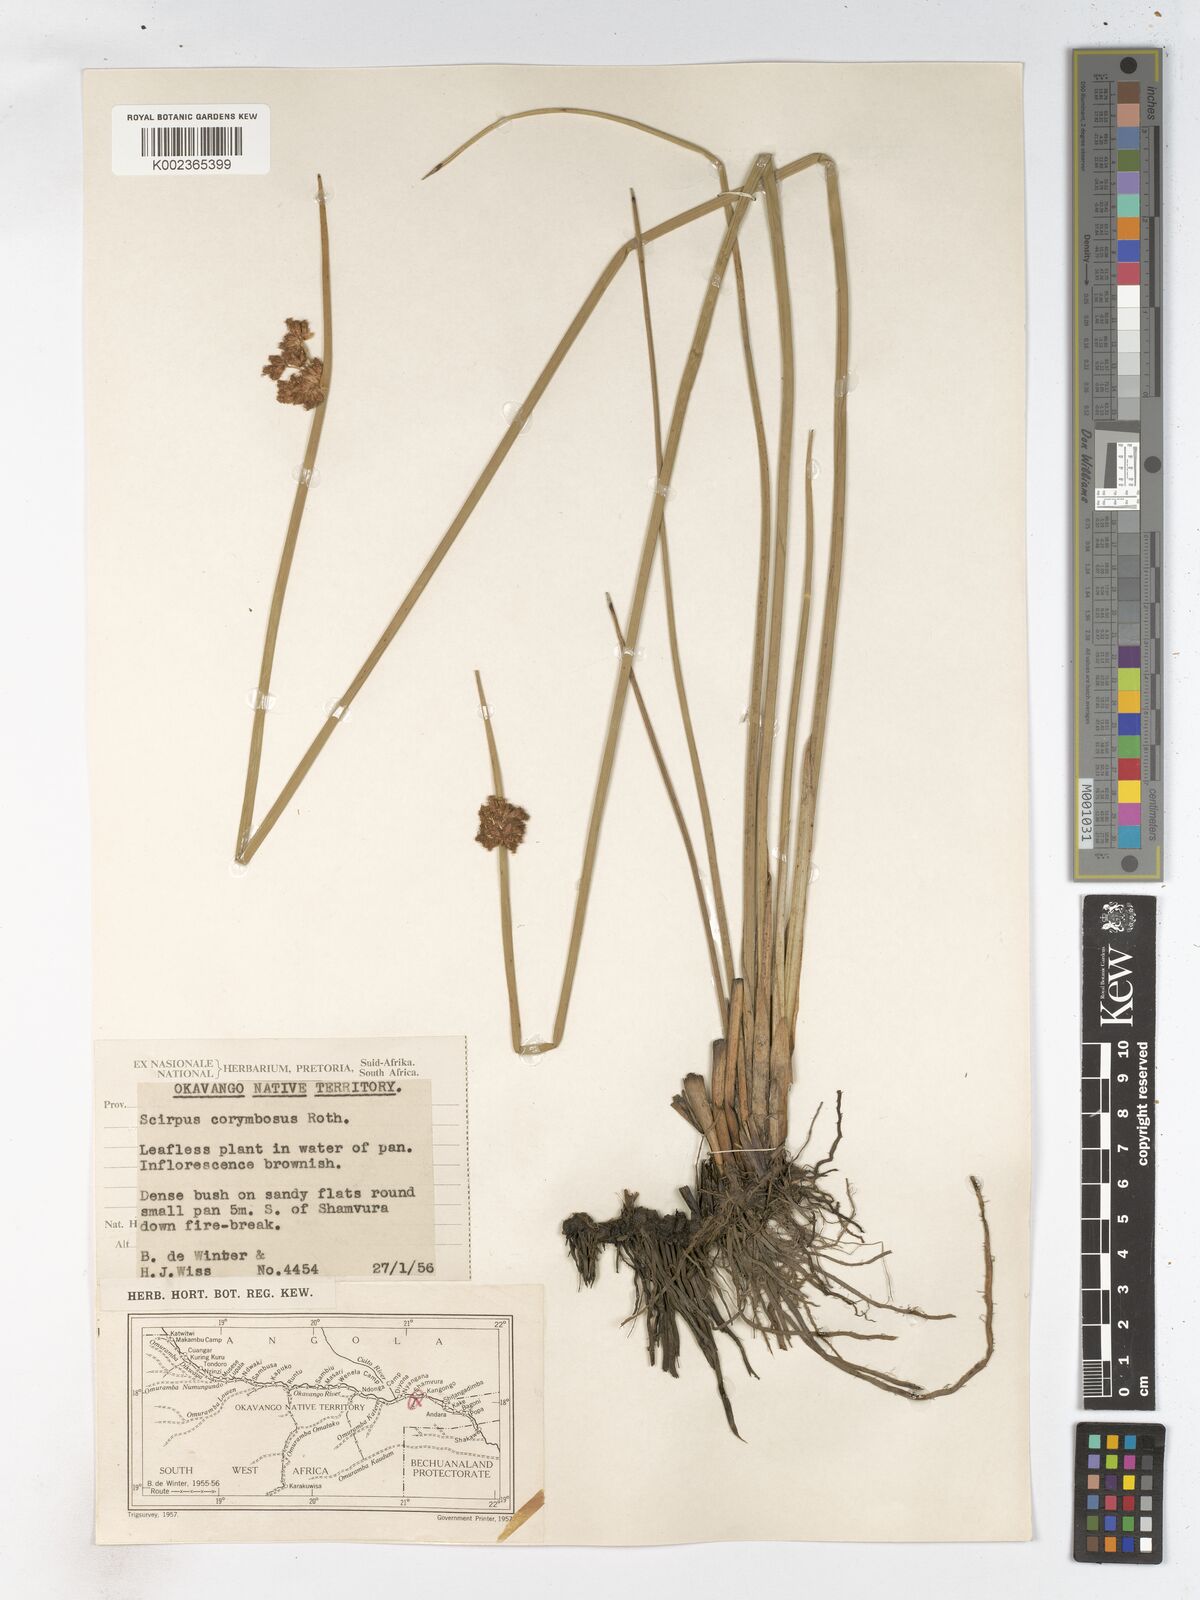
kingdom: Plantae
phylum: Tracheophyta
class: Liliopsida
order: Poales
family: Cyperaceae
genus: Schoenoplectiella
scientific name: Schoenoplectiella brachyceras
